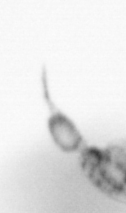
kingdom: Animalia
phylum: Arthropoda
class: Copepoda
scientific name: Copepoda
